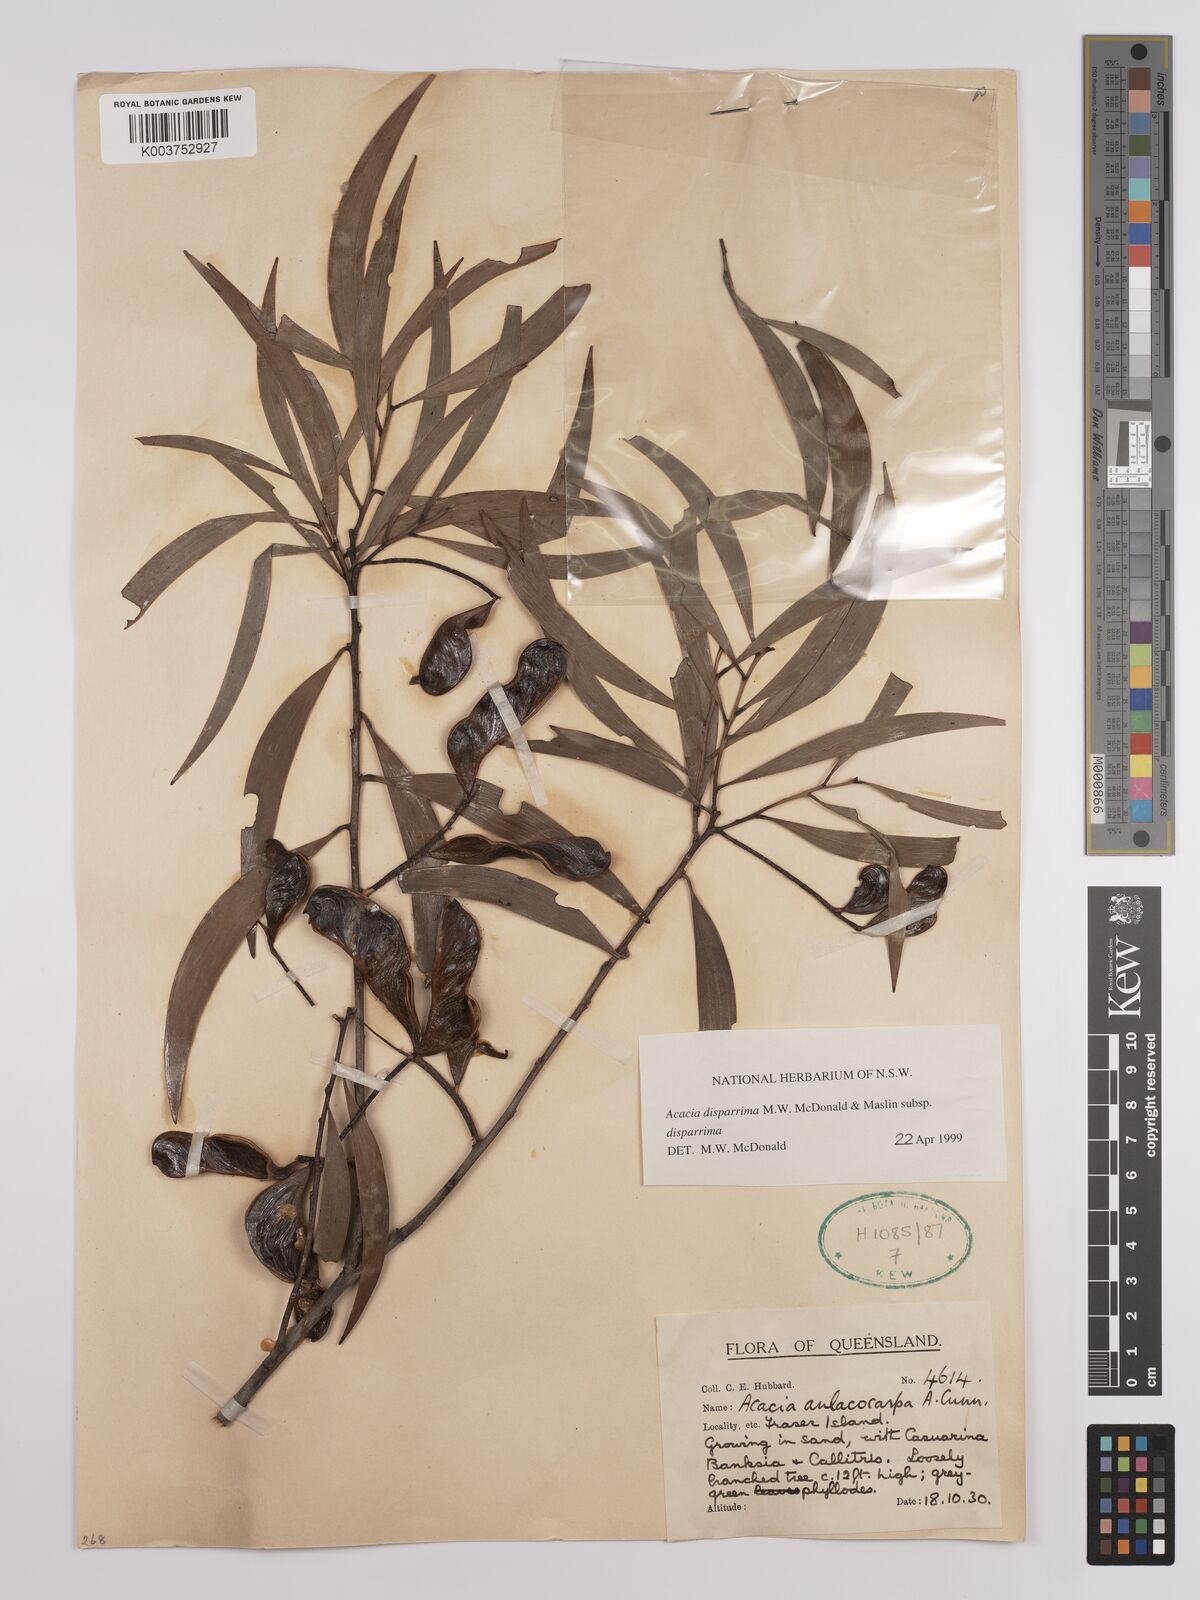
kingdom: Plantae
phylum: Tracheophyta
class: Magnoliopsida
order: Fabales
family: Fabaceae
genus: Acacia
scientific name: Acacia disparrima
